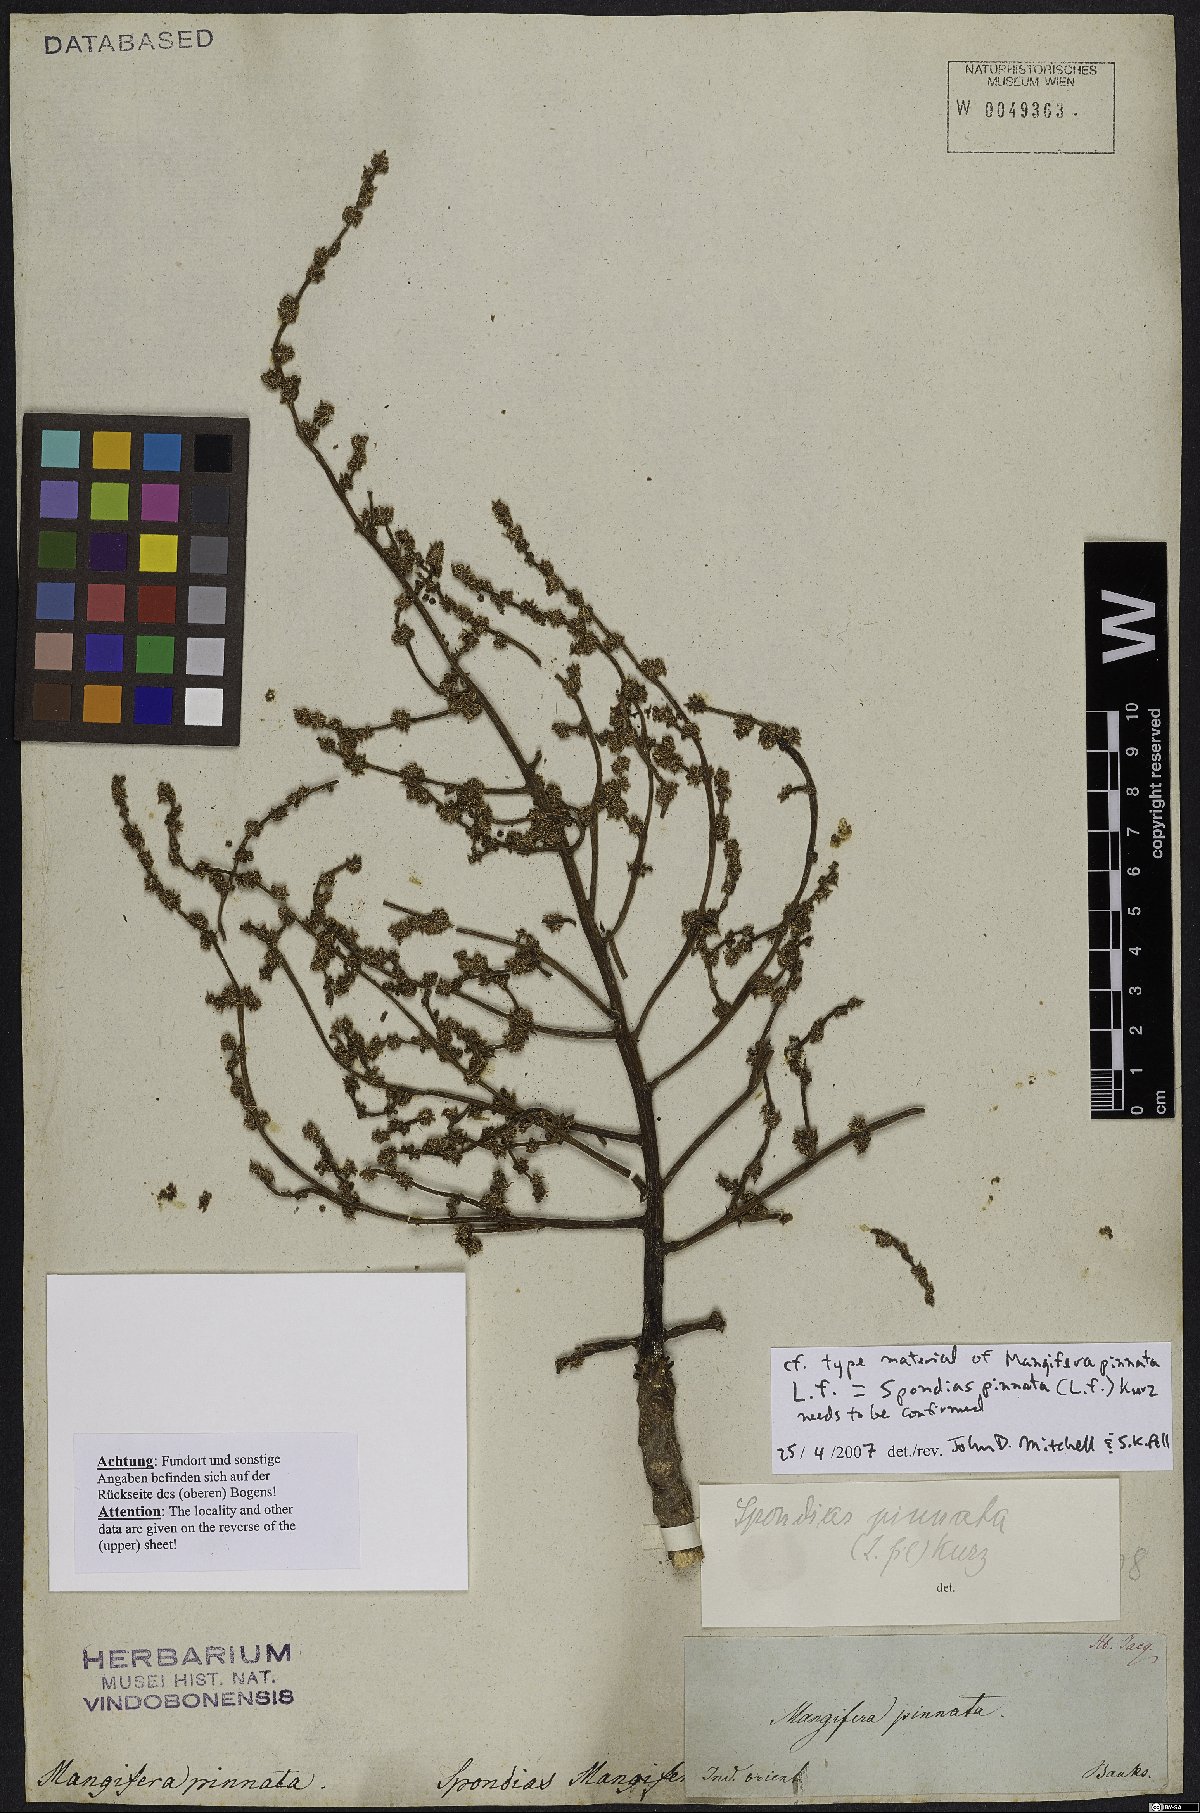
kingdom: Plantae
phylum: Tracheophyta
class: Magnoliopsida
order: Sapindales
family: Anacardiaceae
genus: Spondias
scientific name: Spondias pinnata
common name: Common hog-plum
